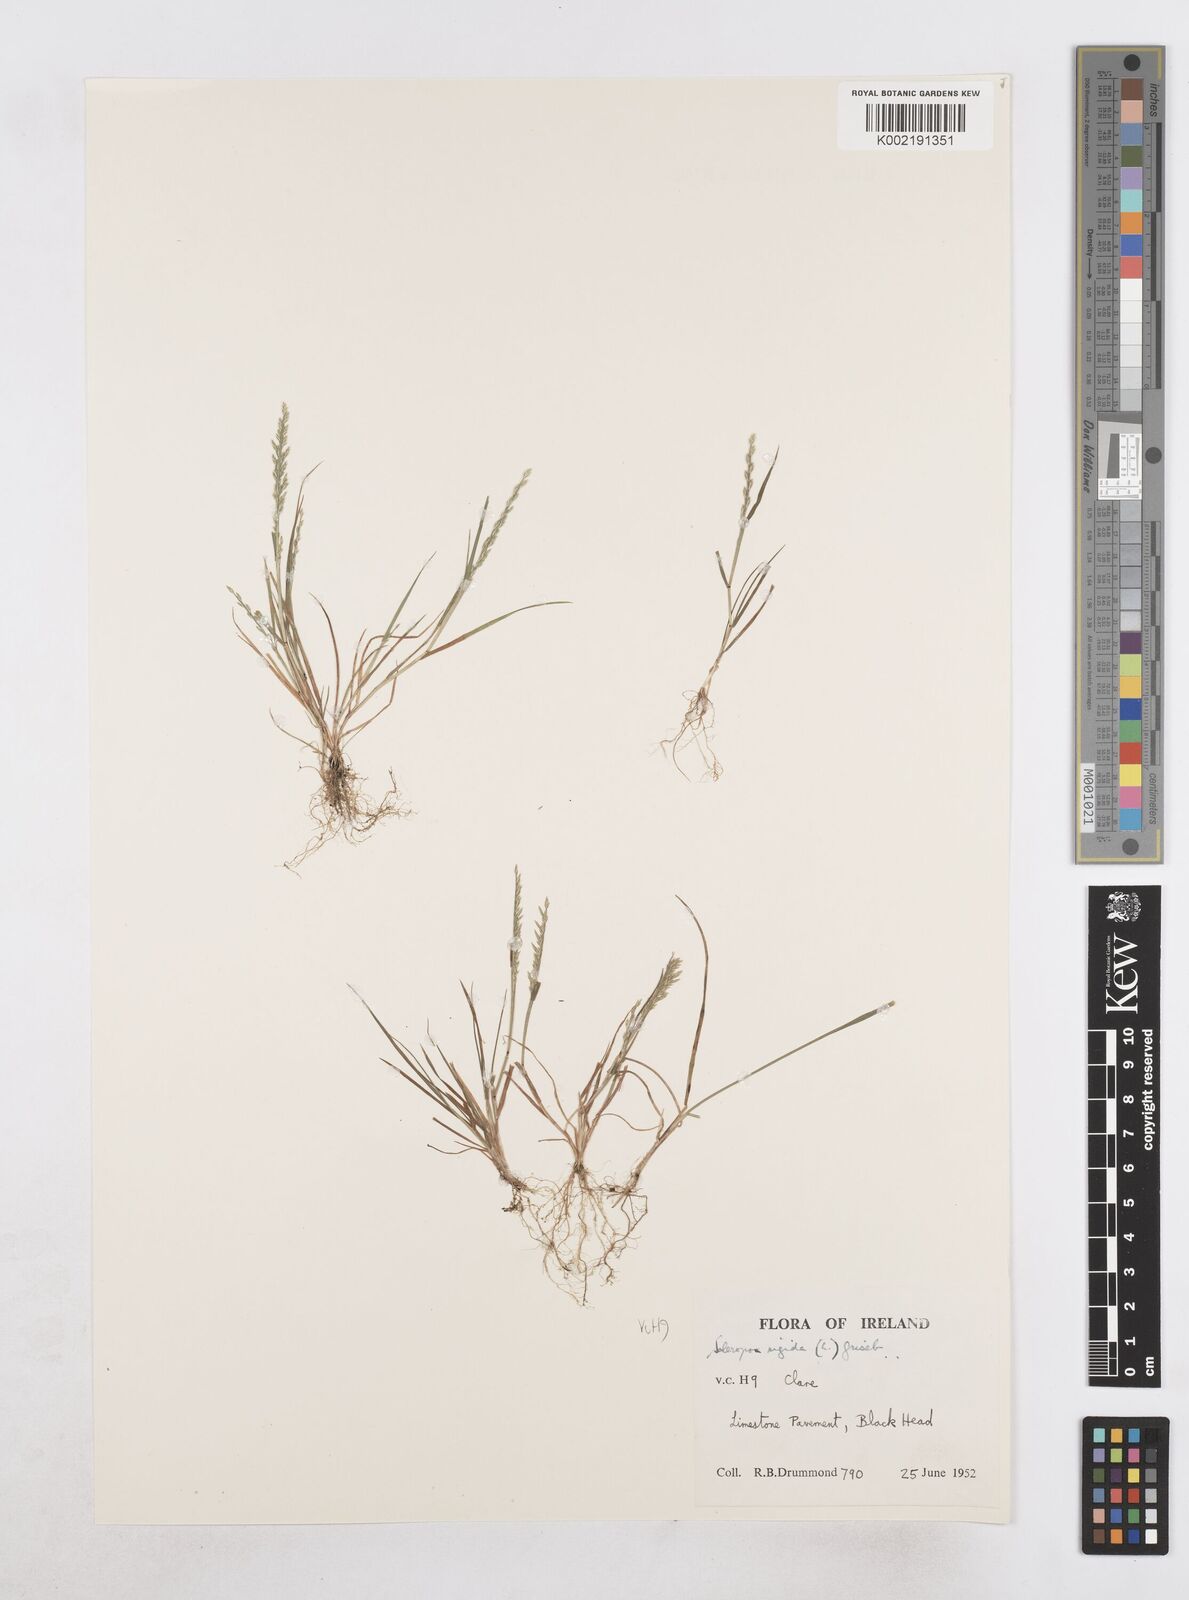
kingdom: Plantae
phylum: Tracheophyta
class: Liliopsida
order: Poales
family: Poaceae
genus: Catapodium
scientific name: Catapodium rigidum
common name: Fern-grass
